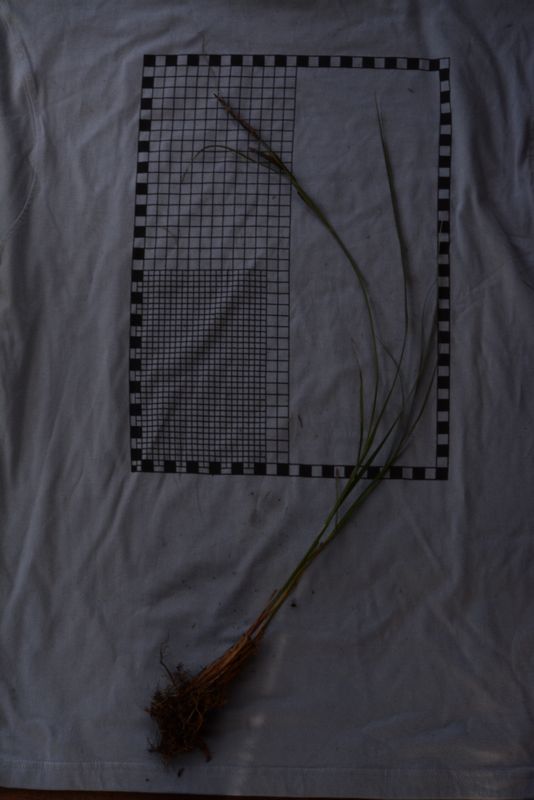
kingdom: Plantae
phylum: Tracheophyta
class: Liliopsida
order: Poales
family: Cyperaceae
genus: Carex
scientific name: Carex acuta
